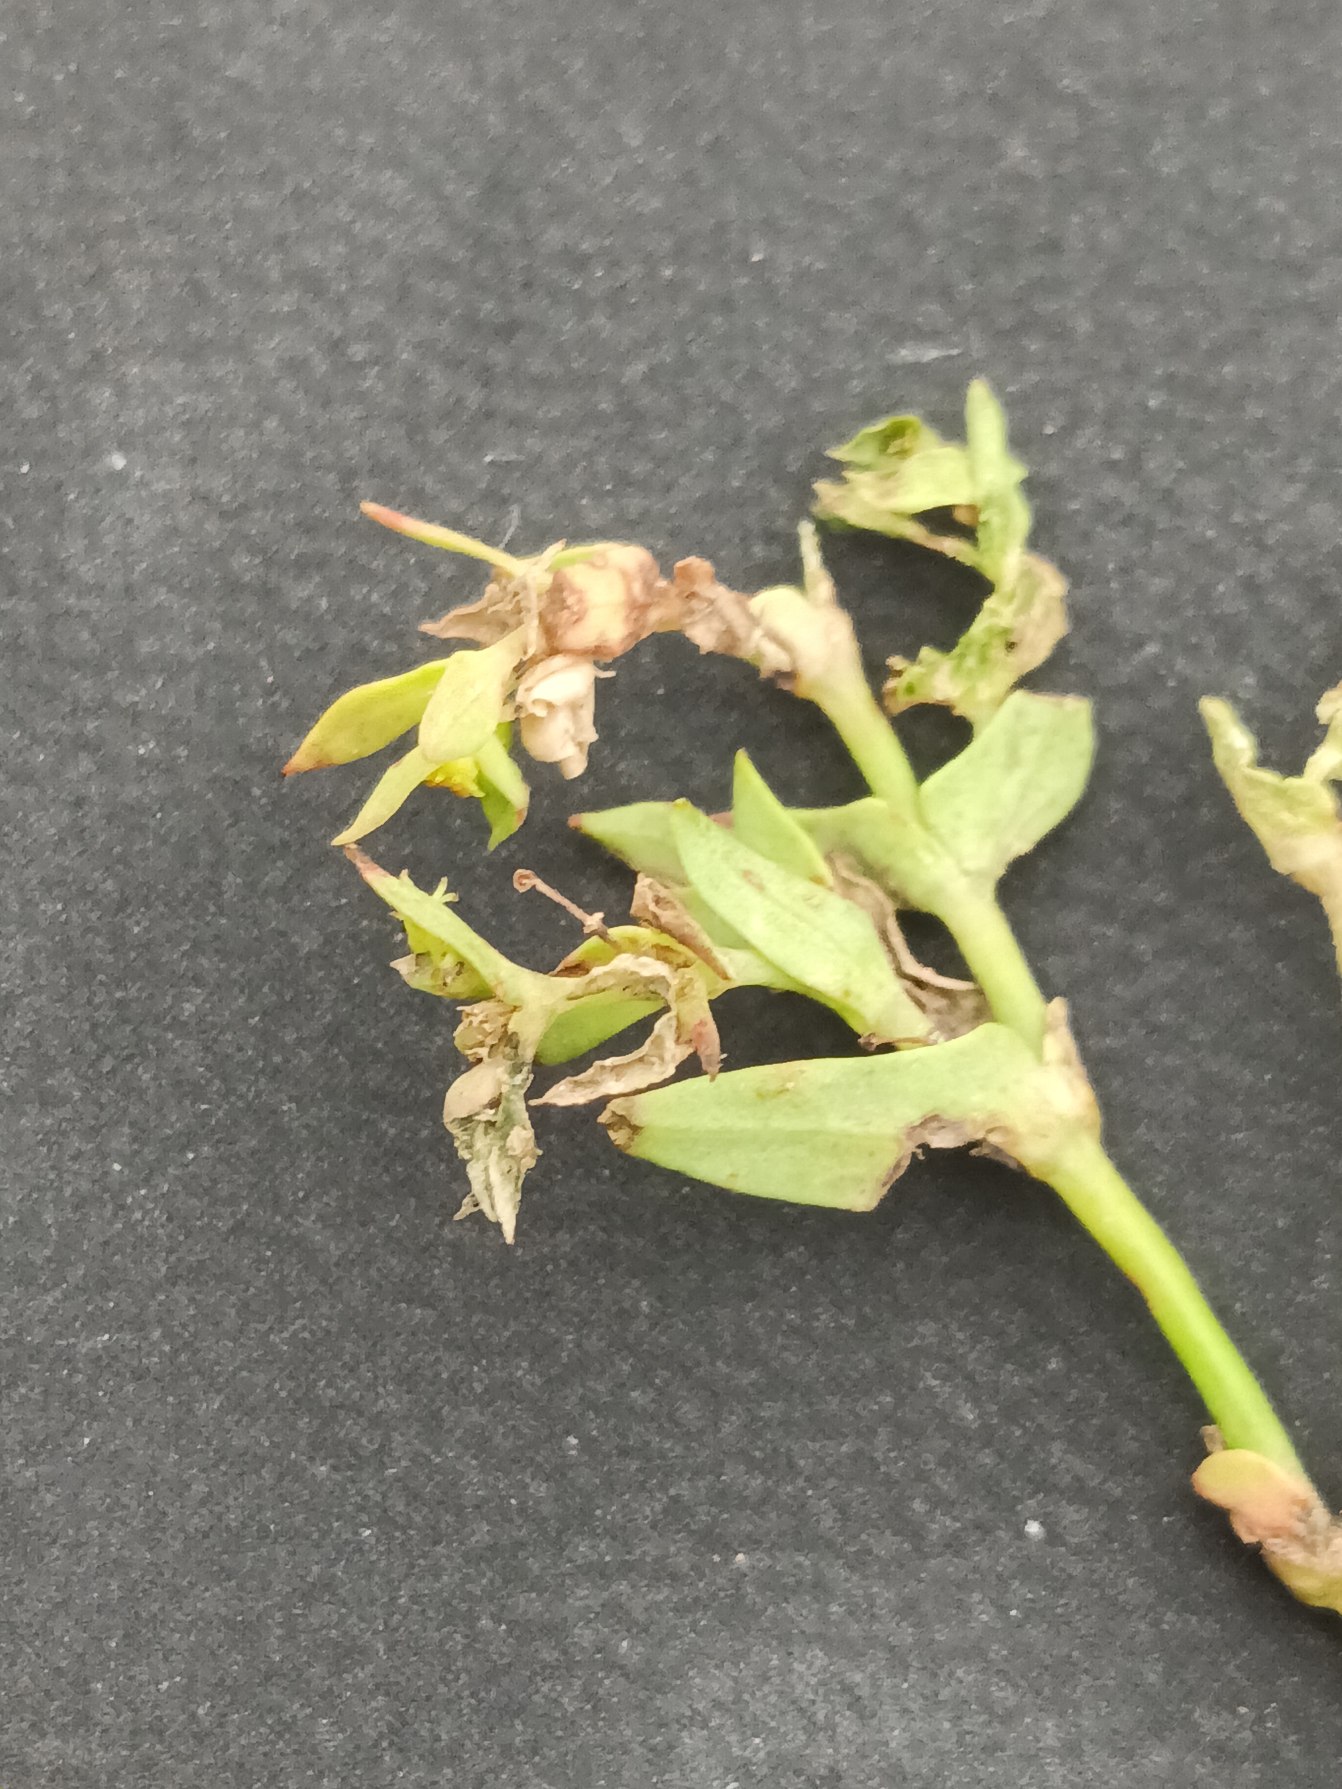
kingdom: Plantae
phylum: Tracheophyta
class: Magnoliopsida
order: Malpighiales
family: Euphorbiaceae
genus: Euphorbia
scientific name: Euphorbia exigua
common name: Liden vortemælk
